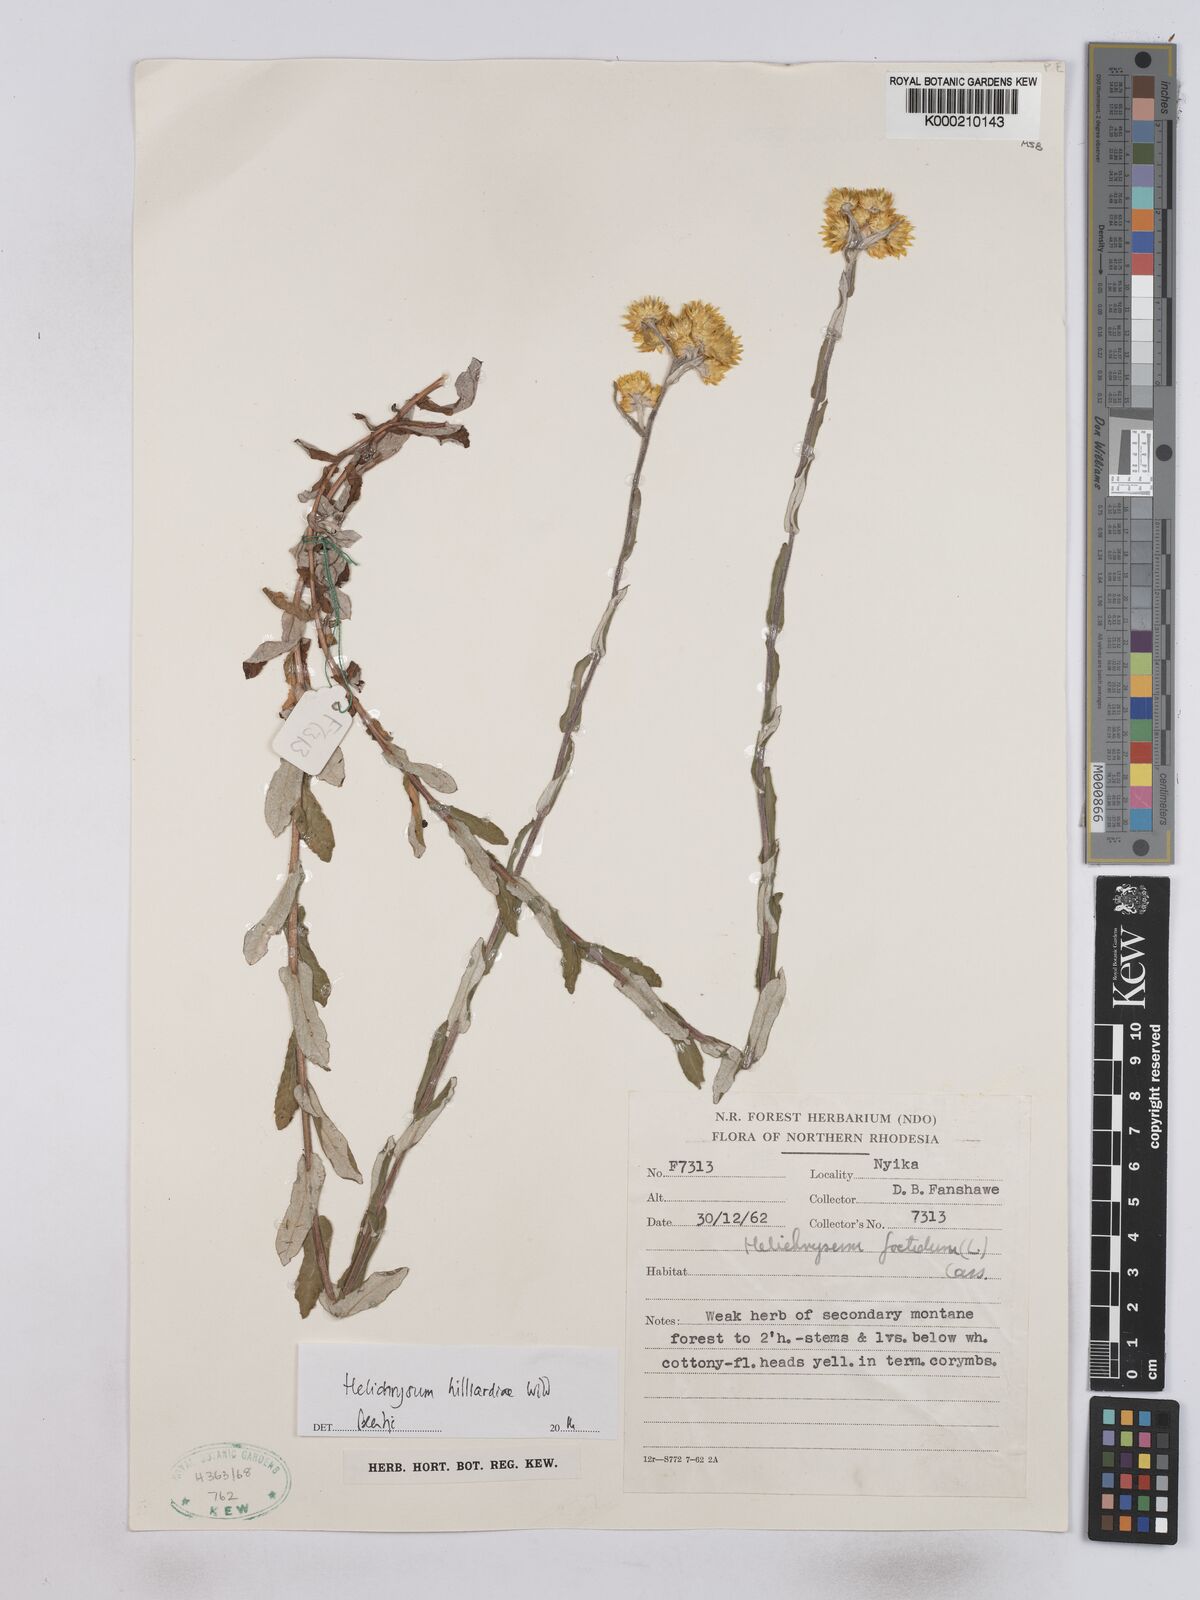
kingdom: Plantae
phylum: Tracheophyta
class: Magnoliopsida
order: Asterales
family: Asteraceae
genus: Helichrysum
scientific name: Helichrysum hilliardiae
